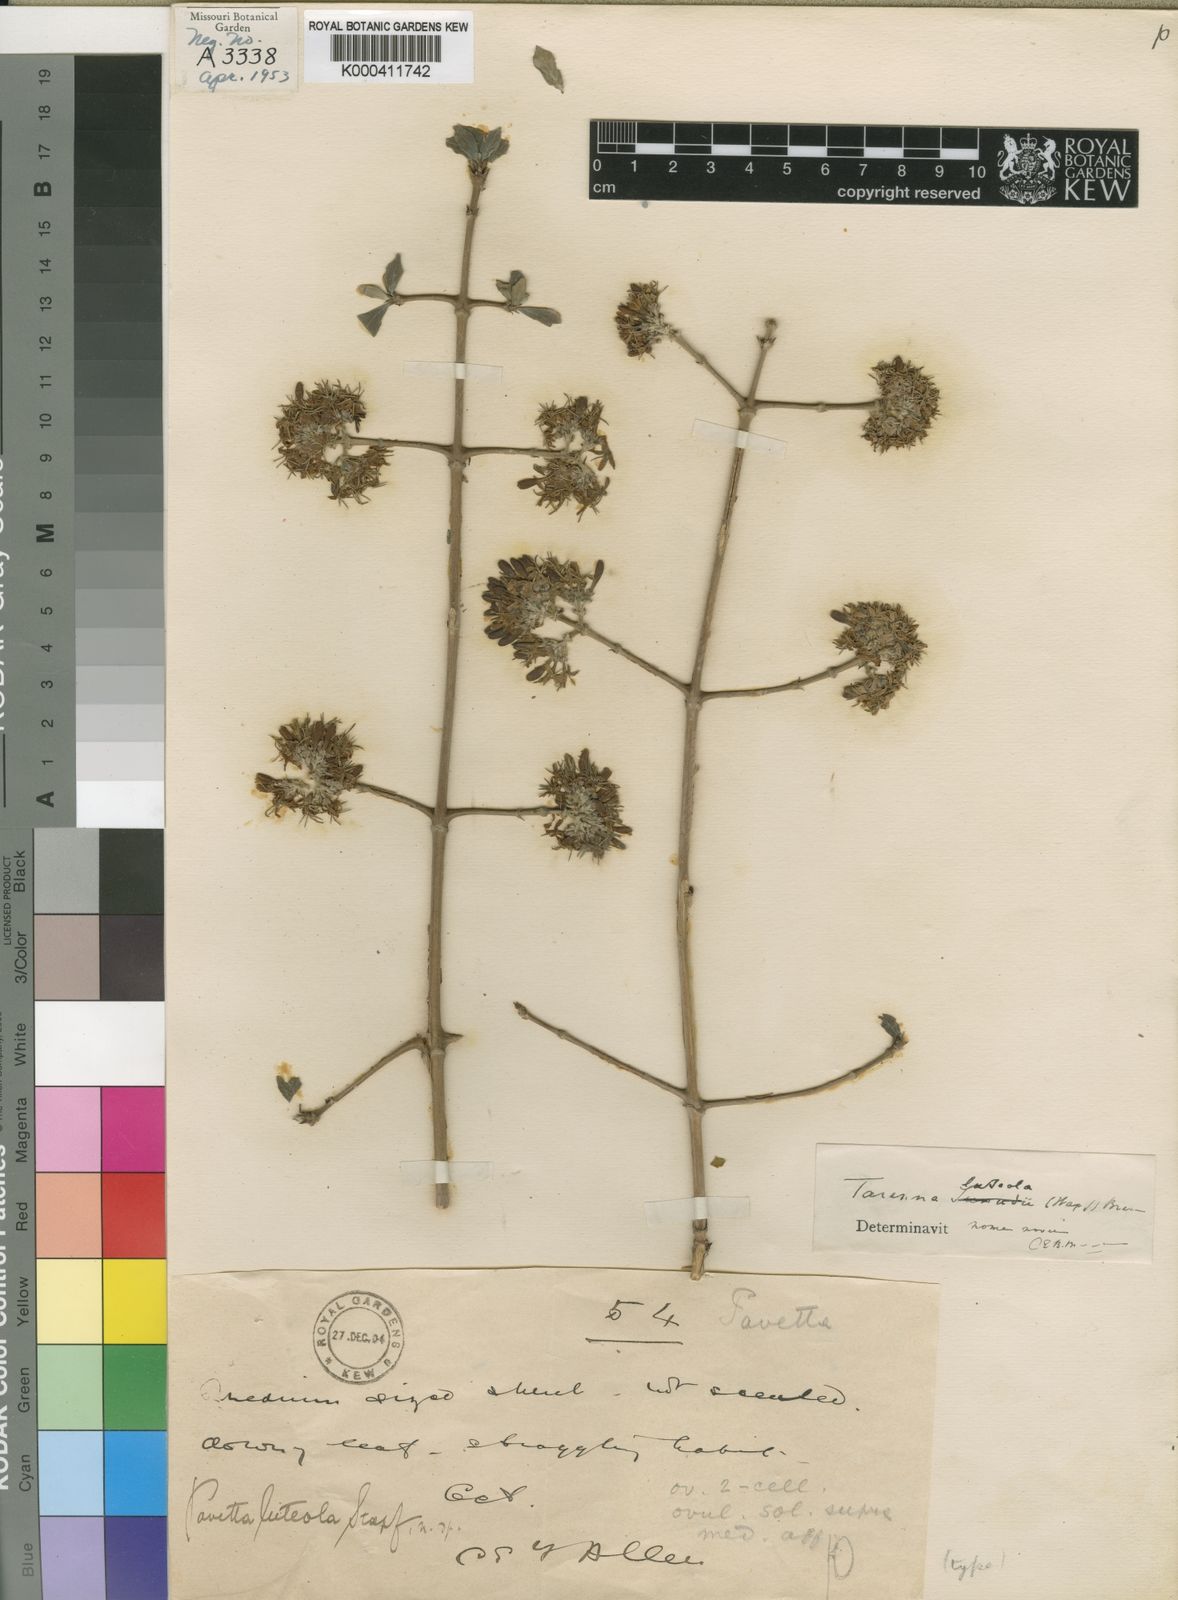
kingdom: Plantae
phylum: Tracheophyta
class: Magnoliopsida
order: Gentianales
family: Rubiaceae
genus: Tarenna
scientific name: Tarenna luteola
